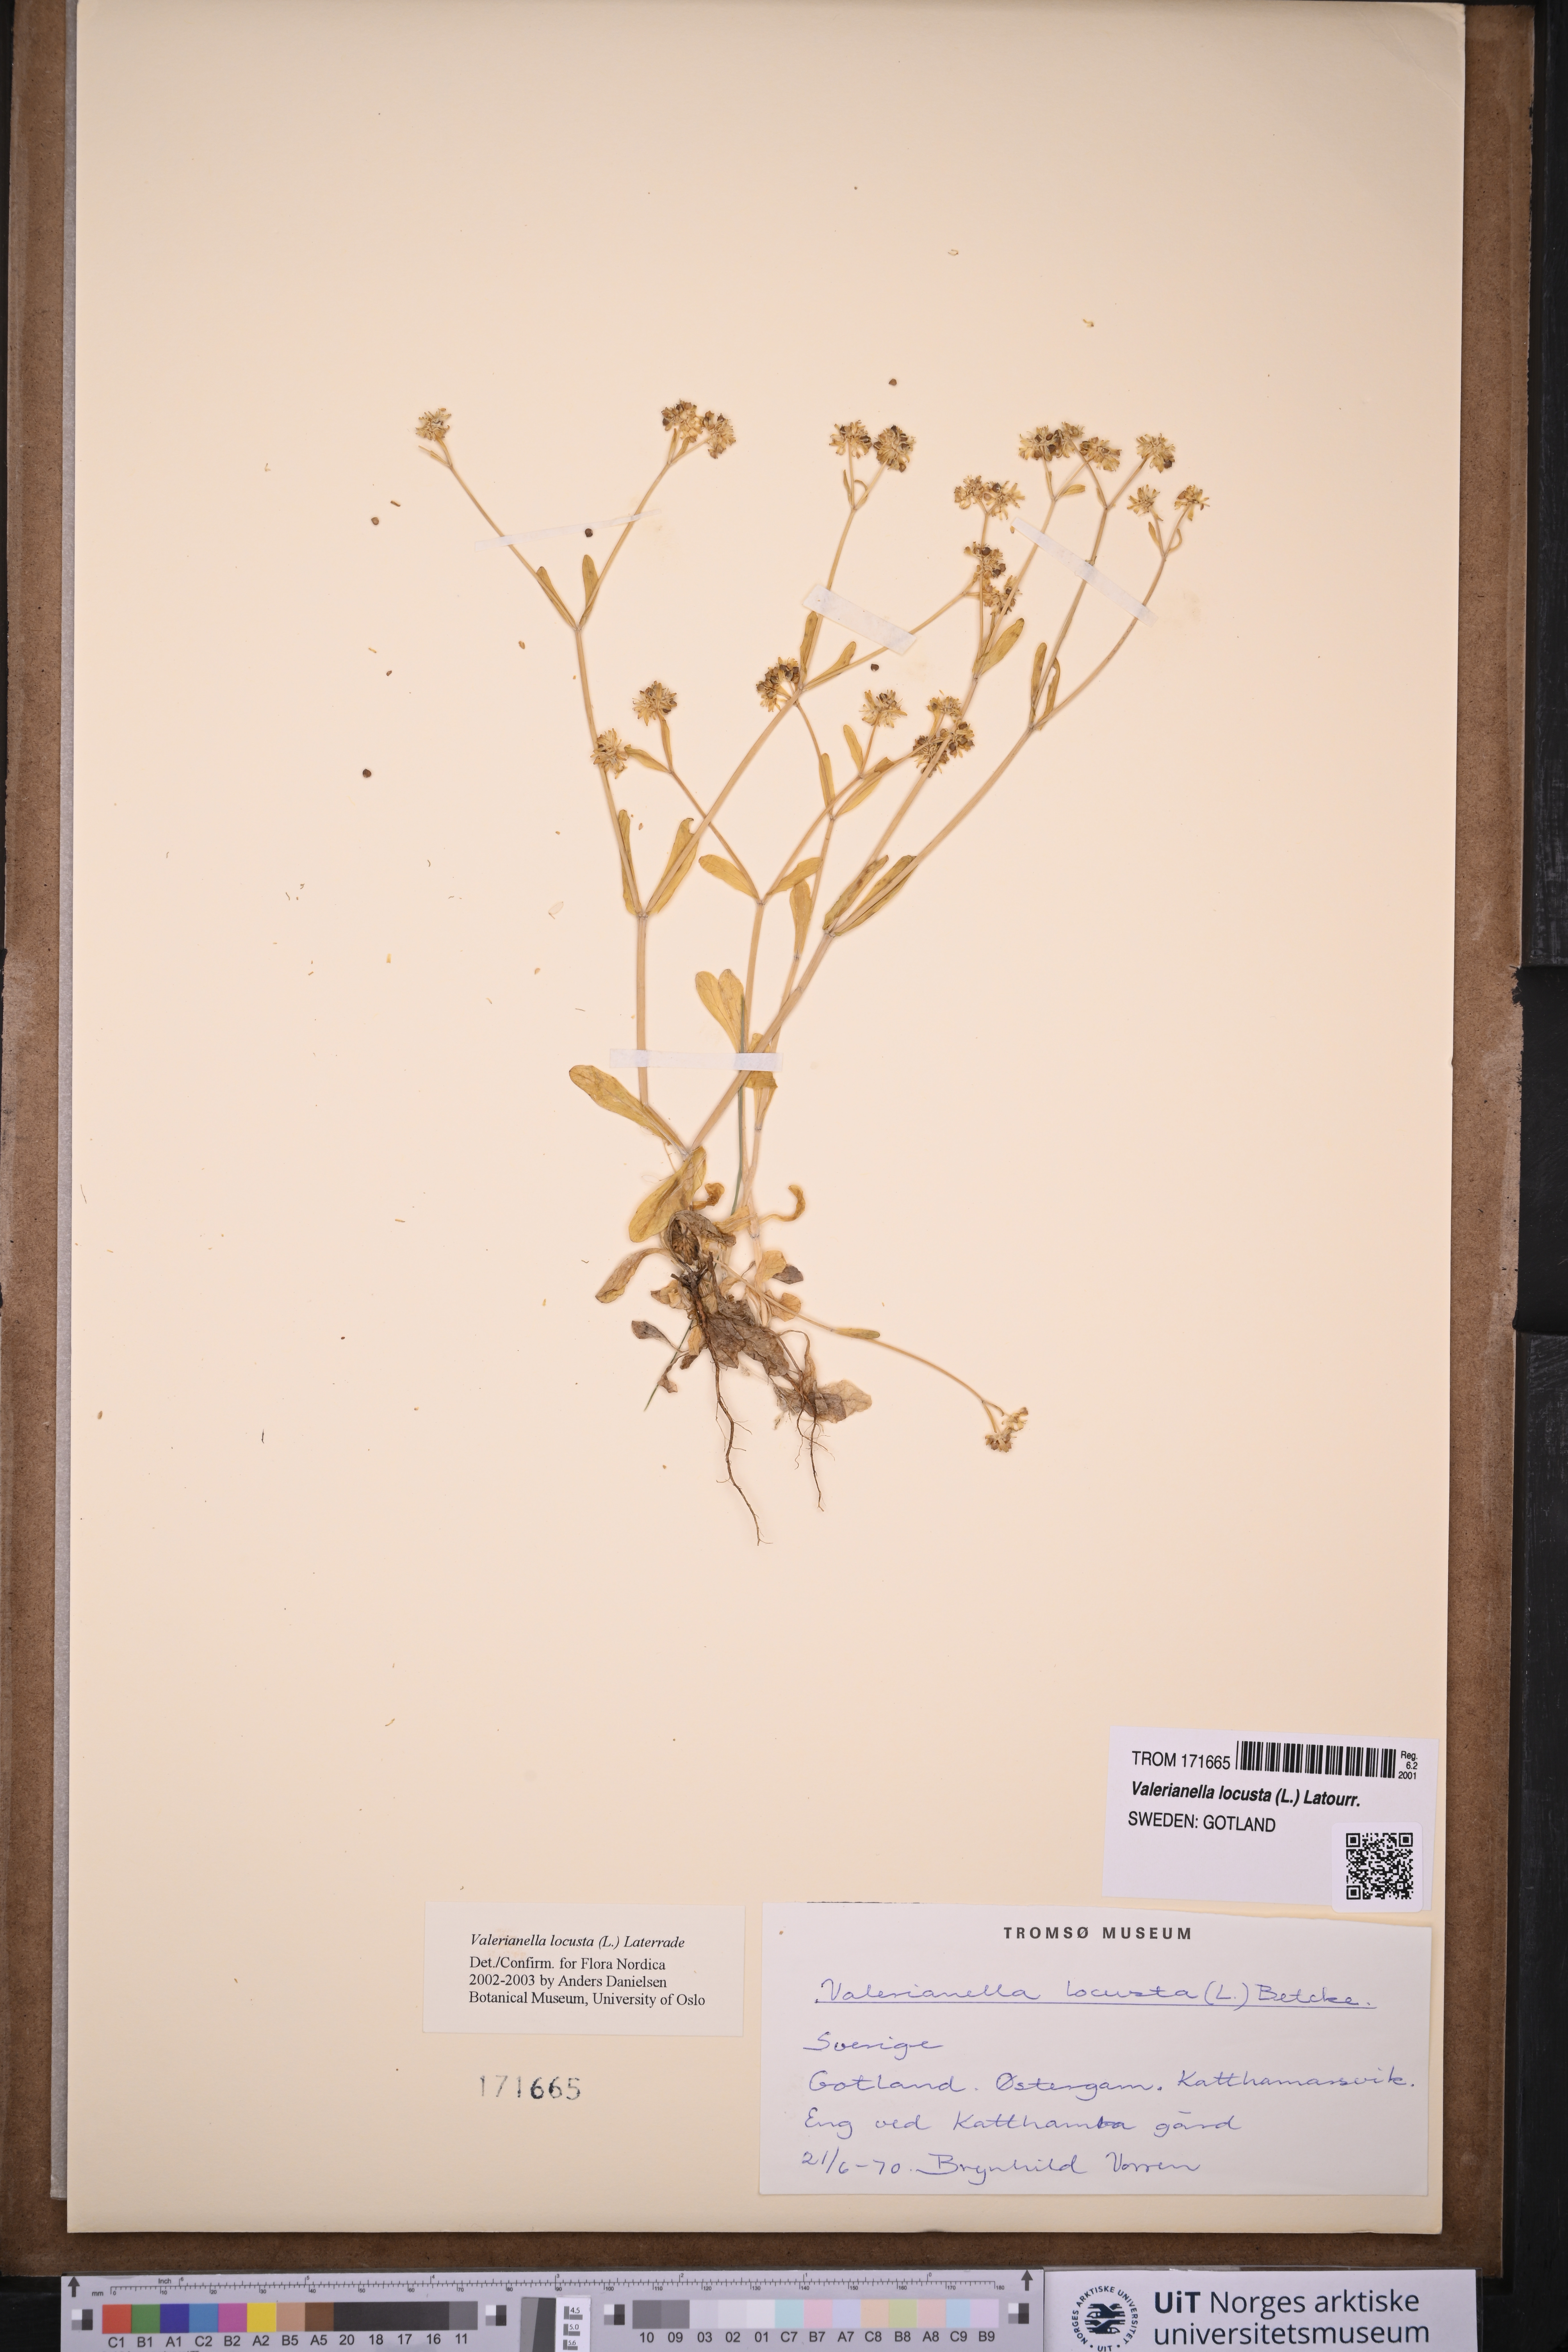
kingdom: Plantae
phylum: Tracheophyta
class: Magnoliopsida
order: Dipsacales
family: Caprifoliaceae
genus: Valerianella
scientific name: Valerianella locusta
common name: Common cornsalad
